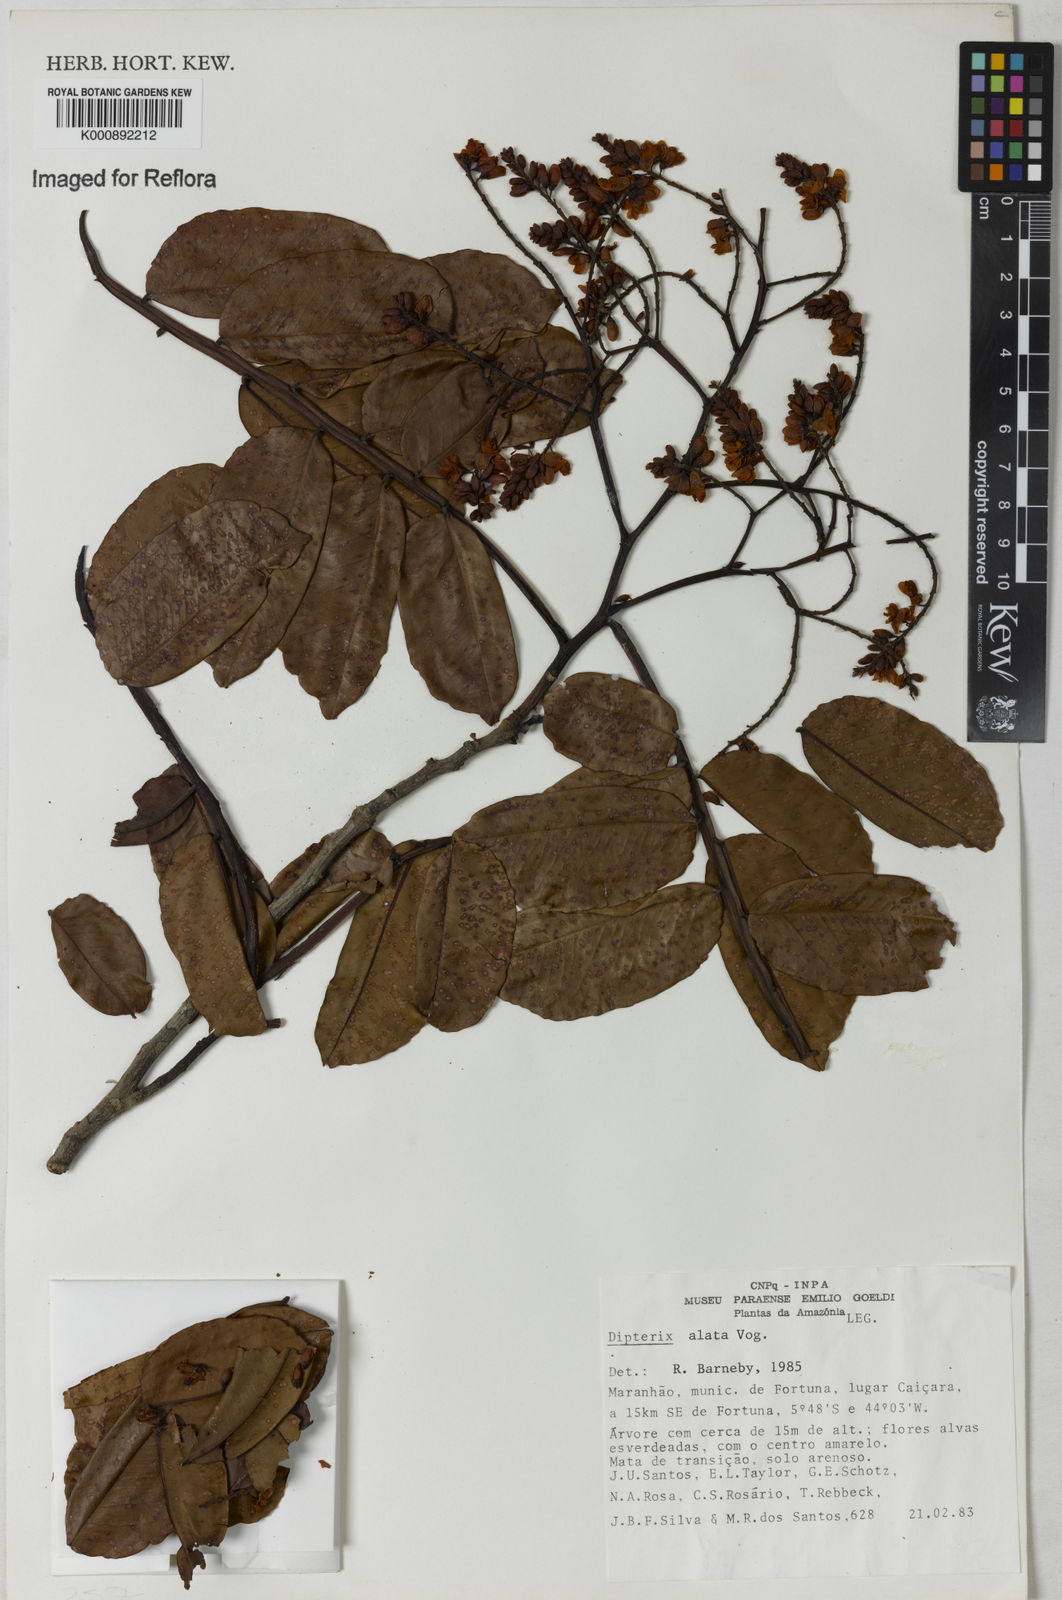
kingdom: Plantae
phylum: Tracheophyta
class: Magnoliopsida
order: Fabales
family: Fabaceae
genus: Dipteryx
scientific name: Dipteryx alata
